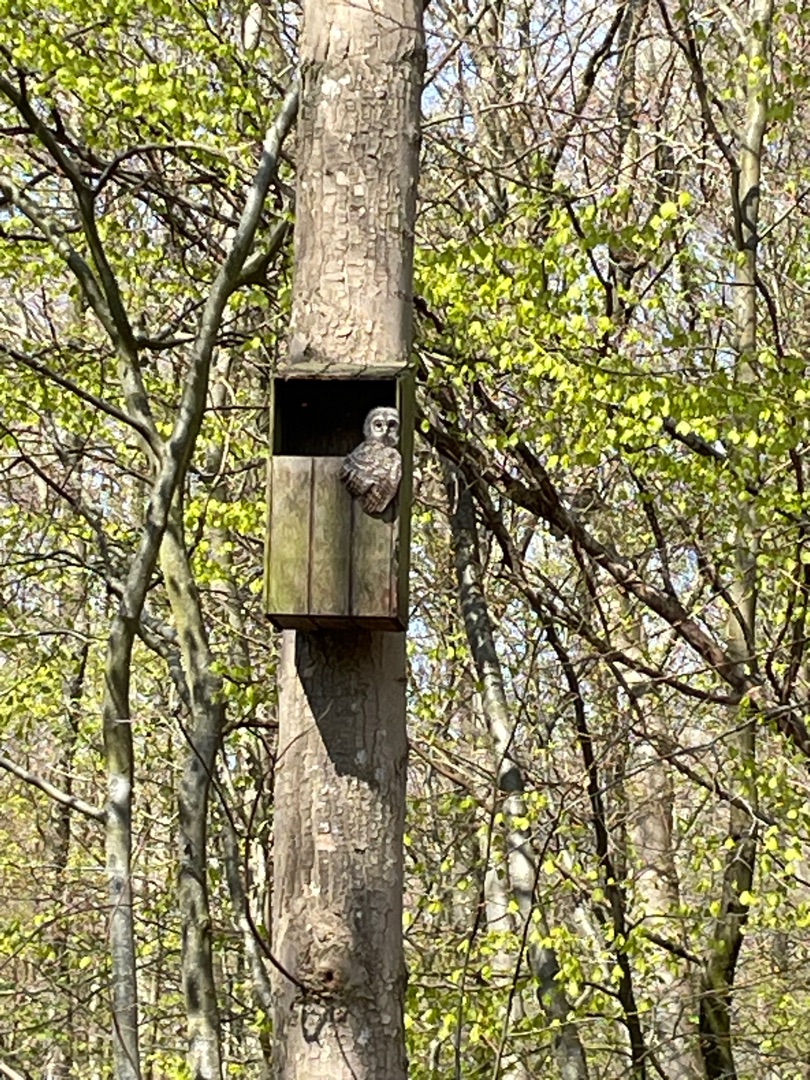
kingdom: Animalia
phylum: Chordata
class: Aves
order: Strigiformes
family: Strigidae
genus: Strix
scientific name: Strix aluco
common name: Natugle
